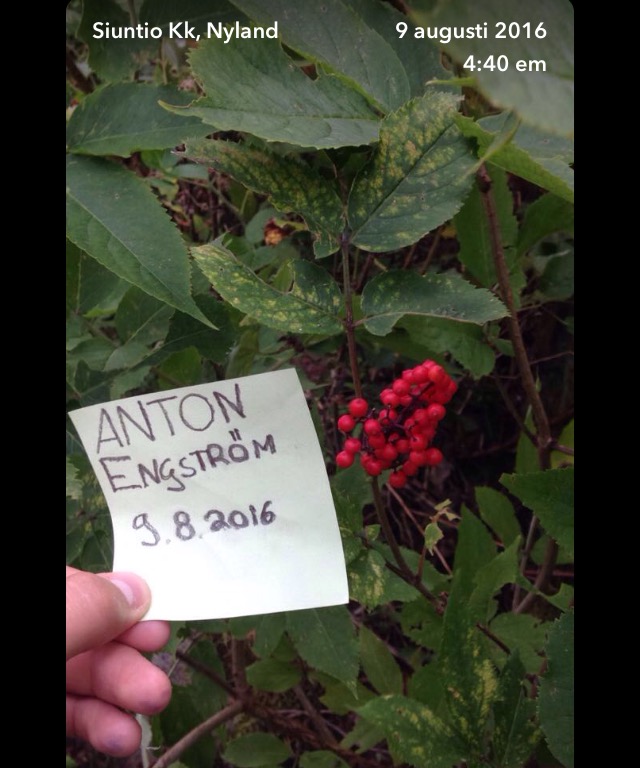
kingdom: Plantae
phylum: Tracheophyta
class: Magnoliopsida
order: Dipsacales
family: Viburnaceae
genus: Sambucus
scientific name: Sambucus racemosa
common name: Red-berried elder
